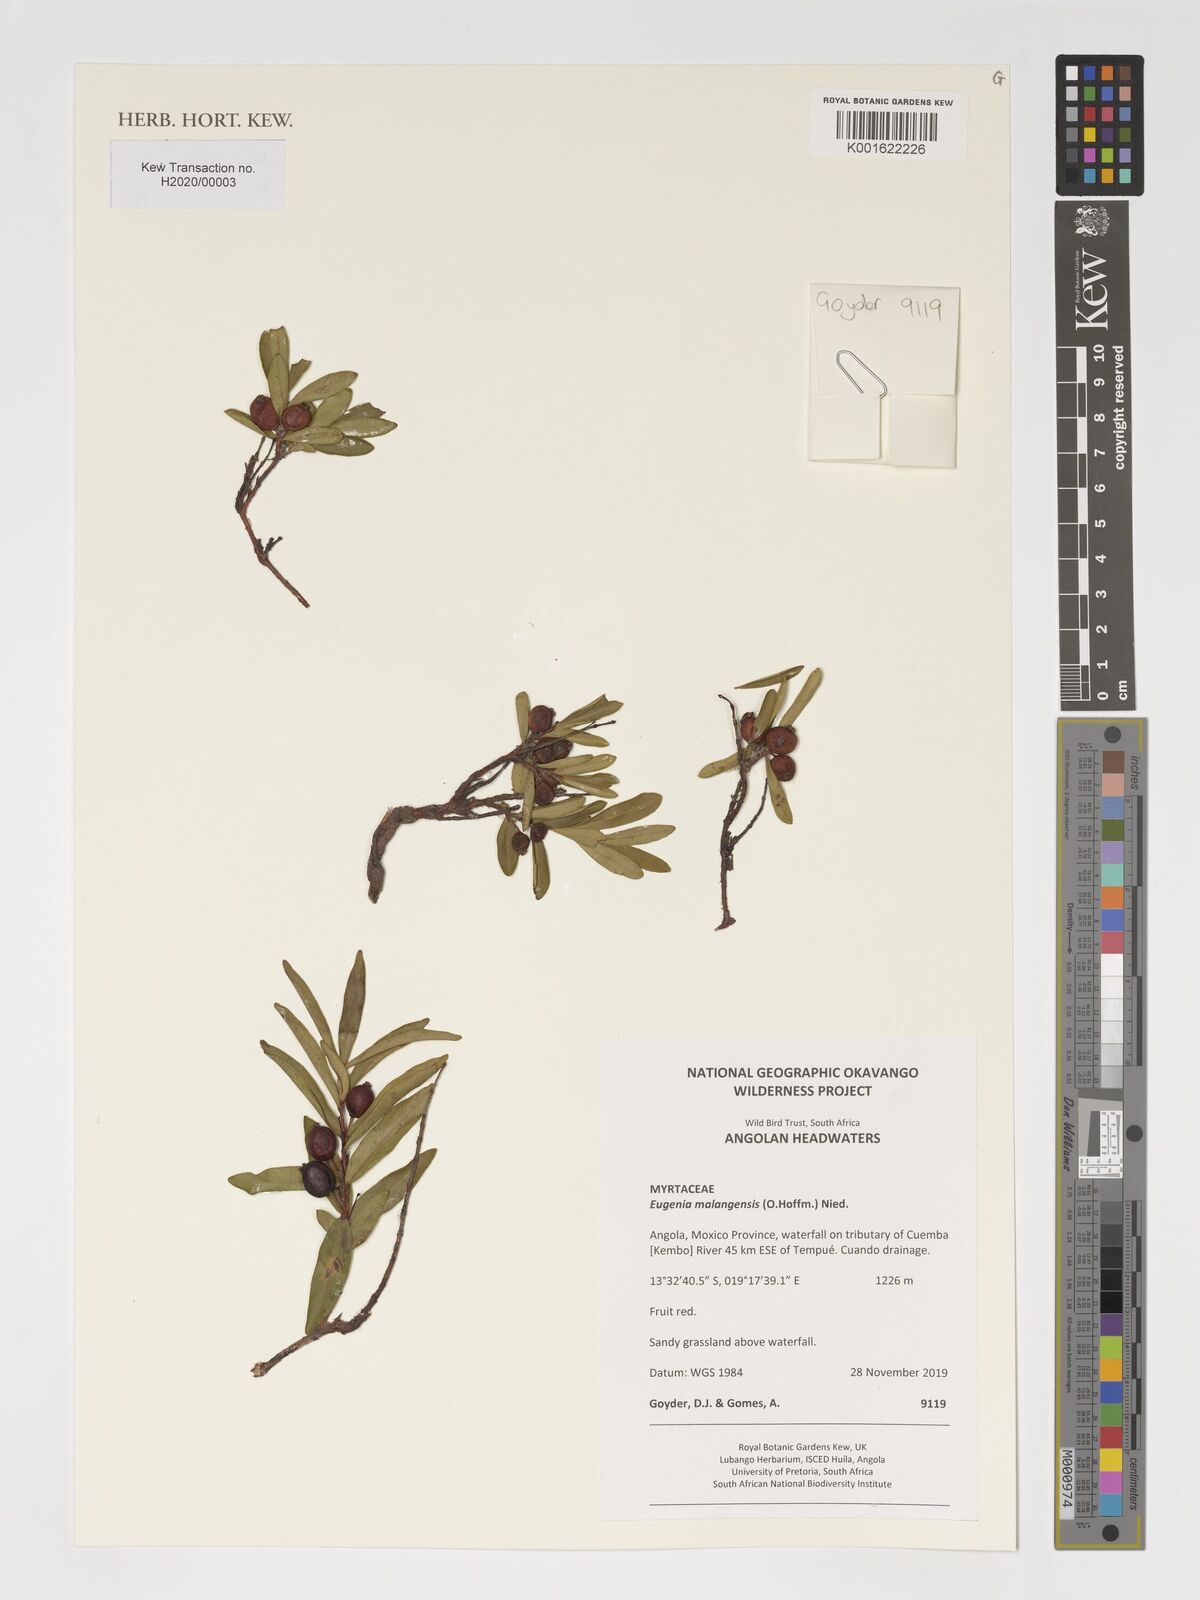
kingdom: Plantae
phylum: Tracheophyta
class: Magnoliopsida
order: Myrtales
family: Myrtaceae
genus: Eugenia
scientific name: Eugenia malangensis
